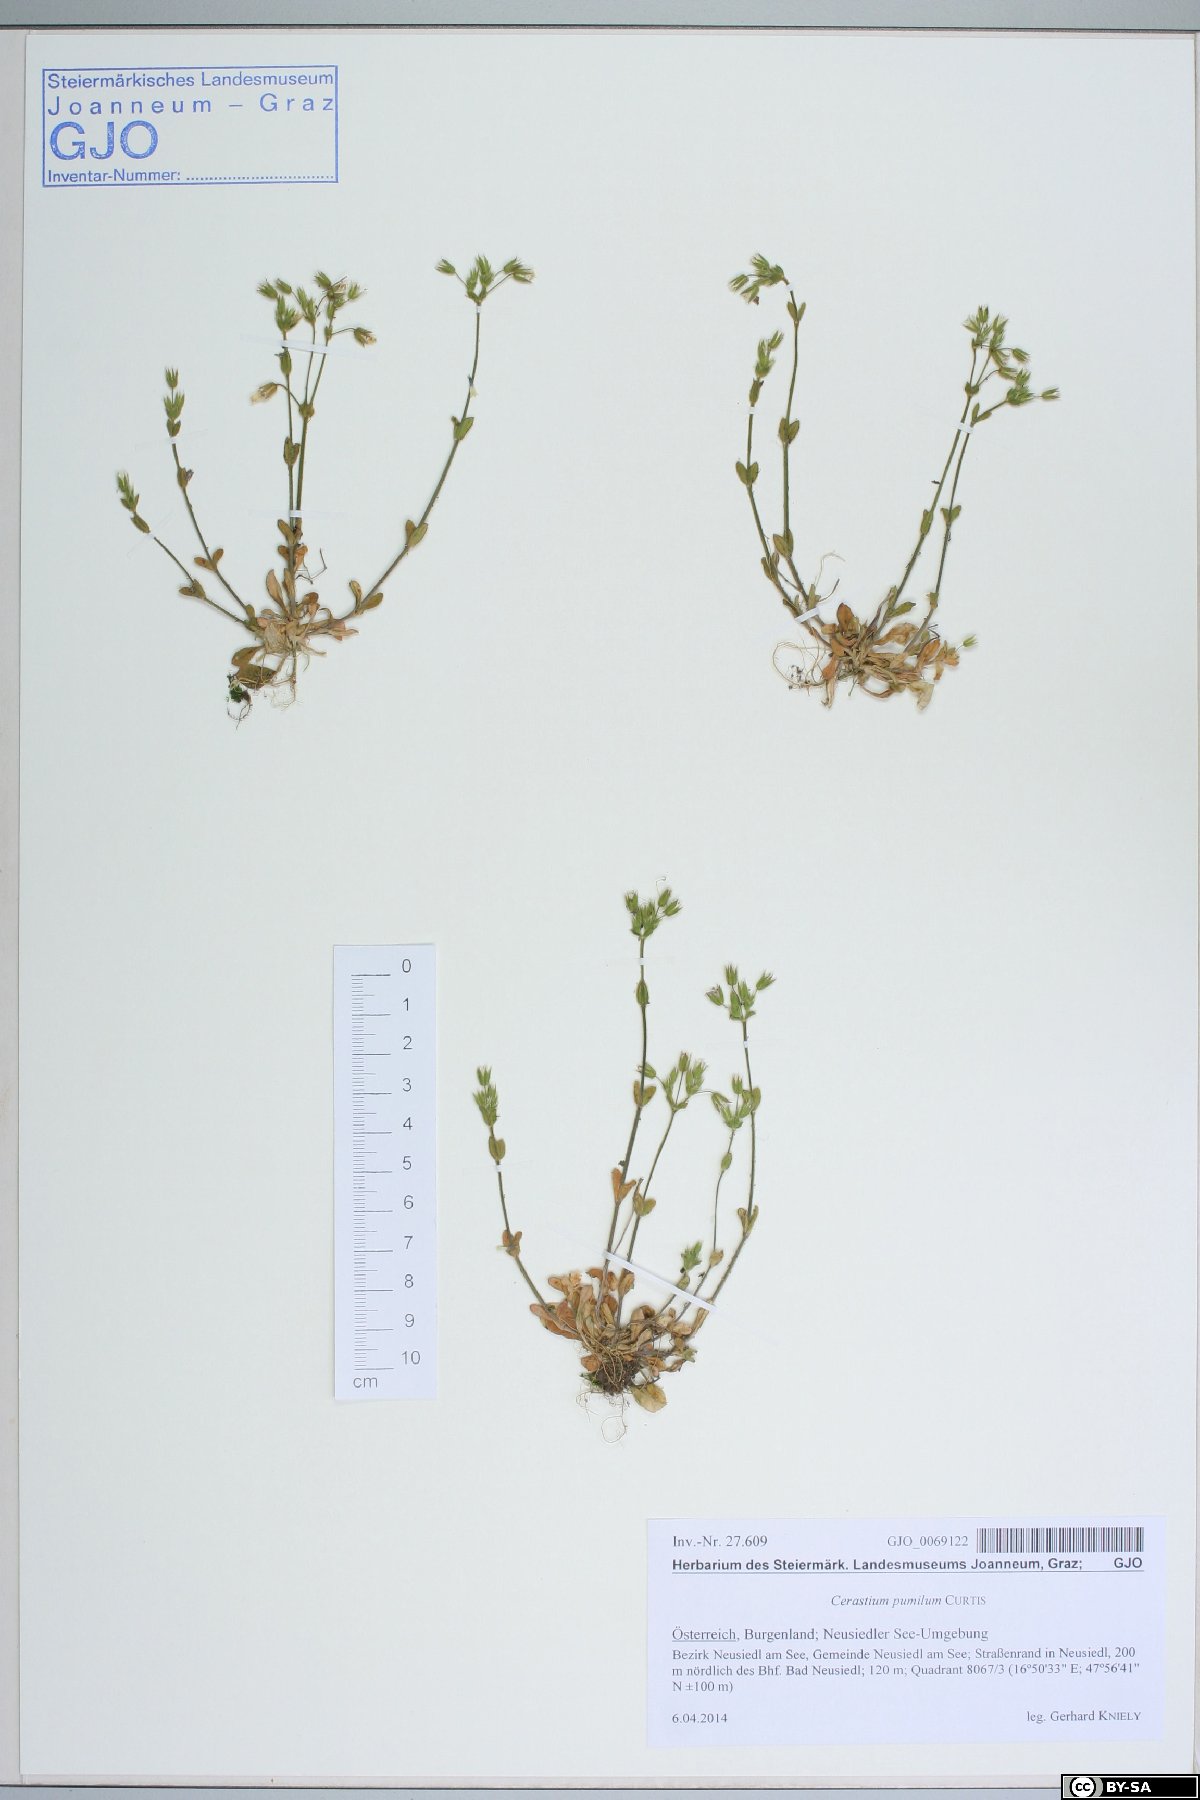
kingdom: Plantae
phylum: Tracheophyta
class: Magnoliopsida
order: Caryophyllales
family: Caryophyllaceae
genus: Cerastium
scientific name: Cerastium pumilum
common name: Dwarf mouse-ear
